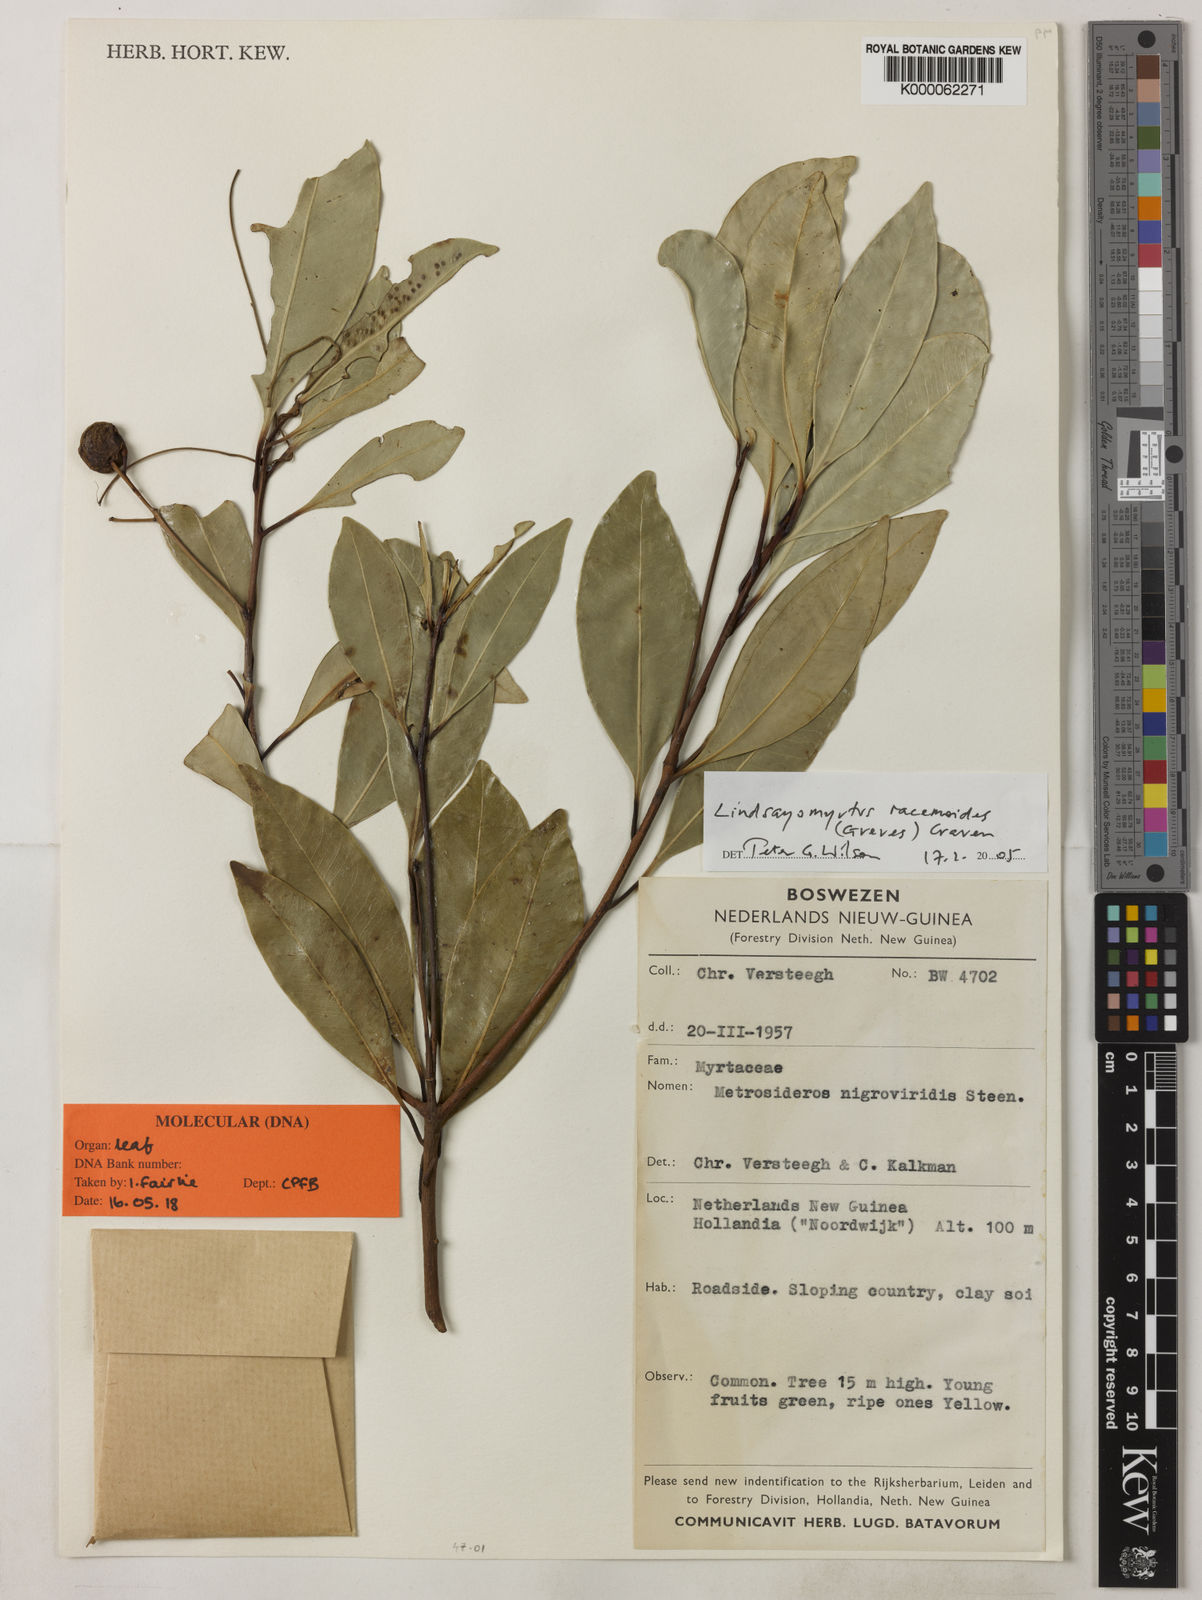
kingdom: Plantae
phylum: Tracheophyta
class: Magnoliopsida
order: Myrtales
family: Myrtaceae
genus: Lindsayomyrtus
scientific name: Lindsayomyrtus racemoides
